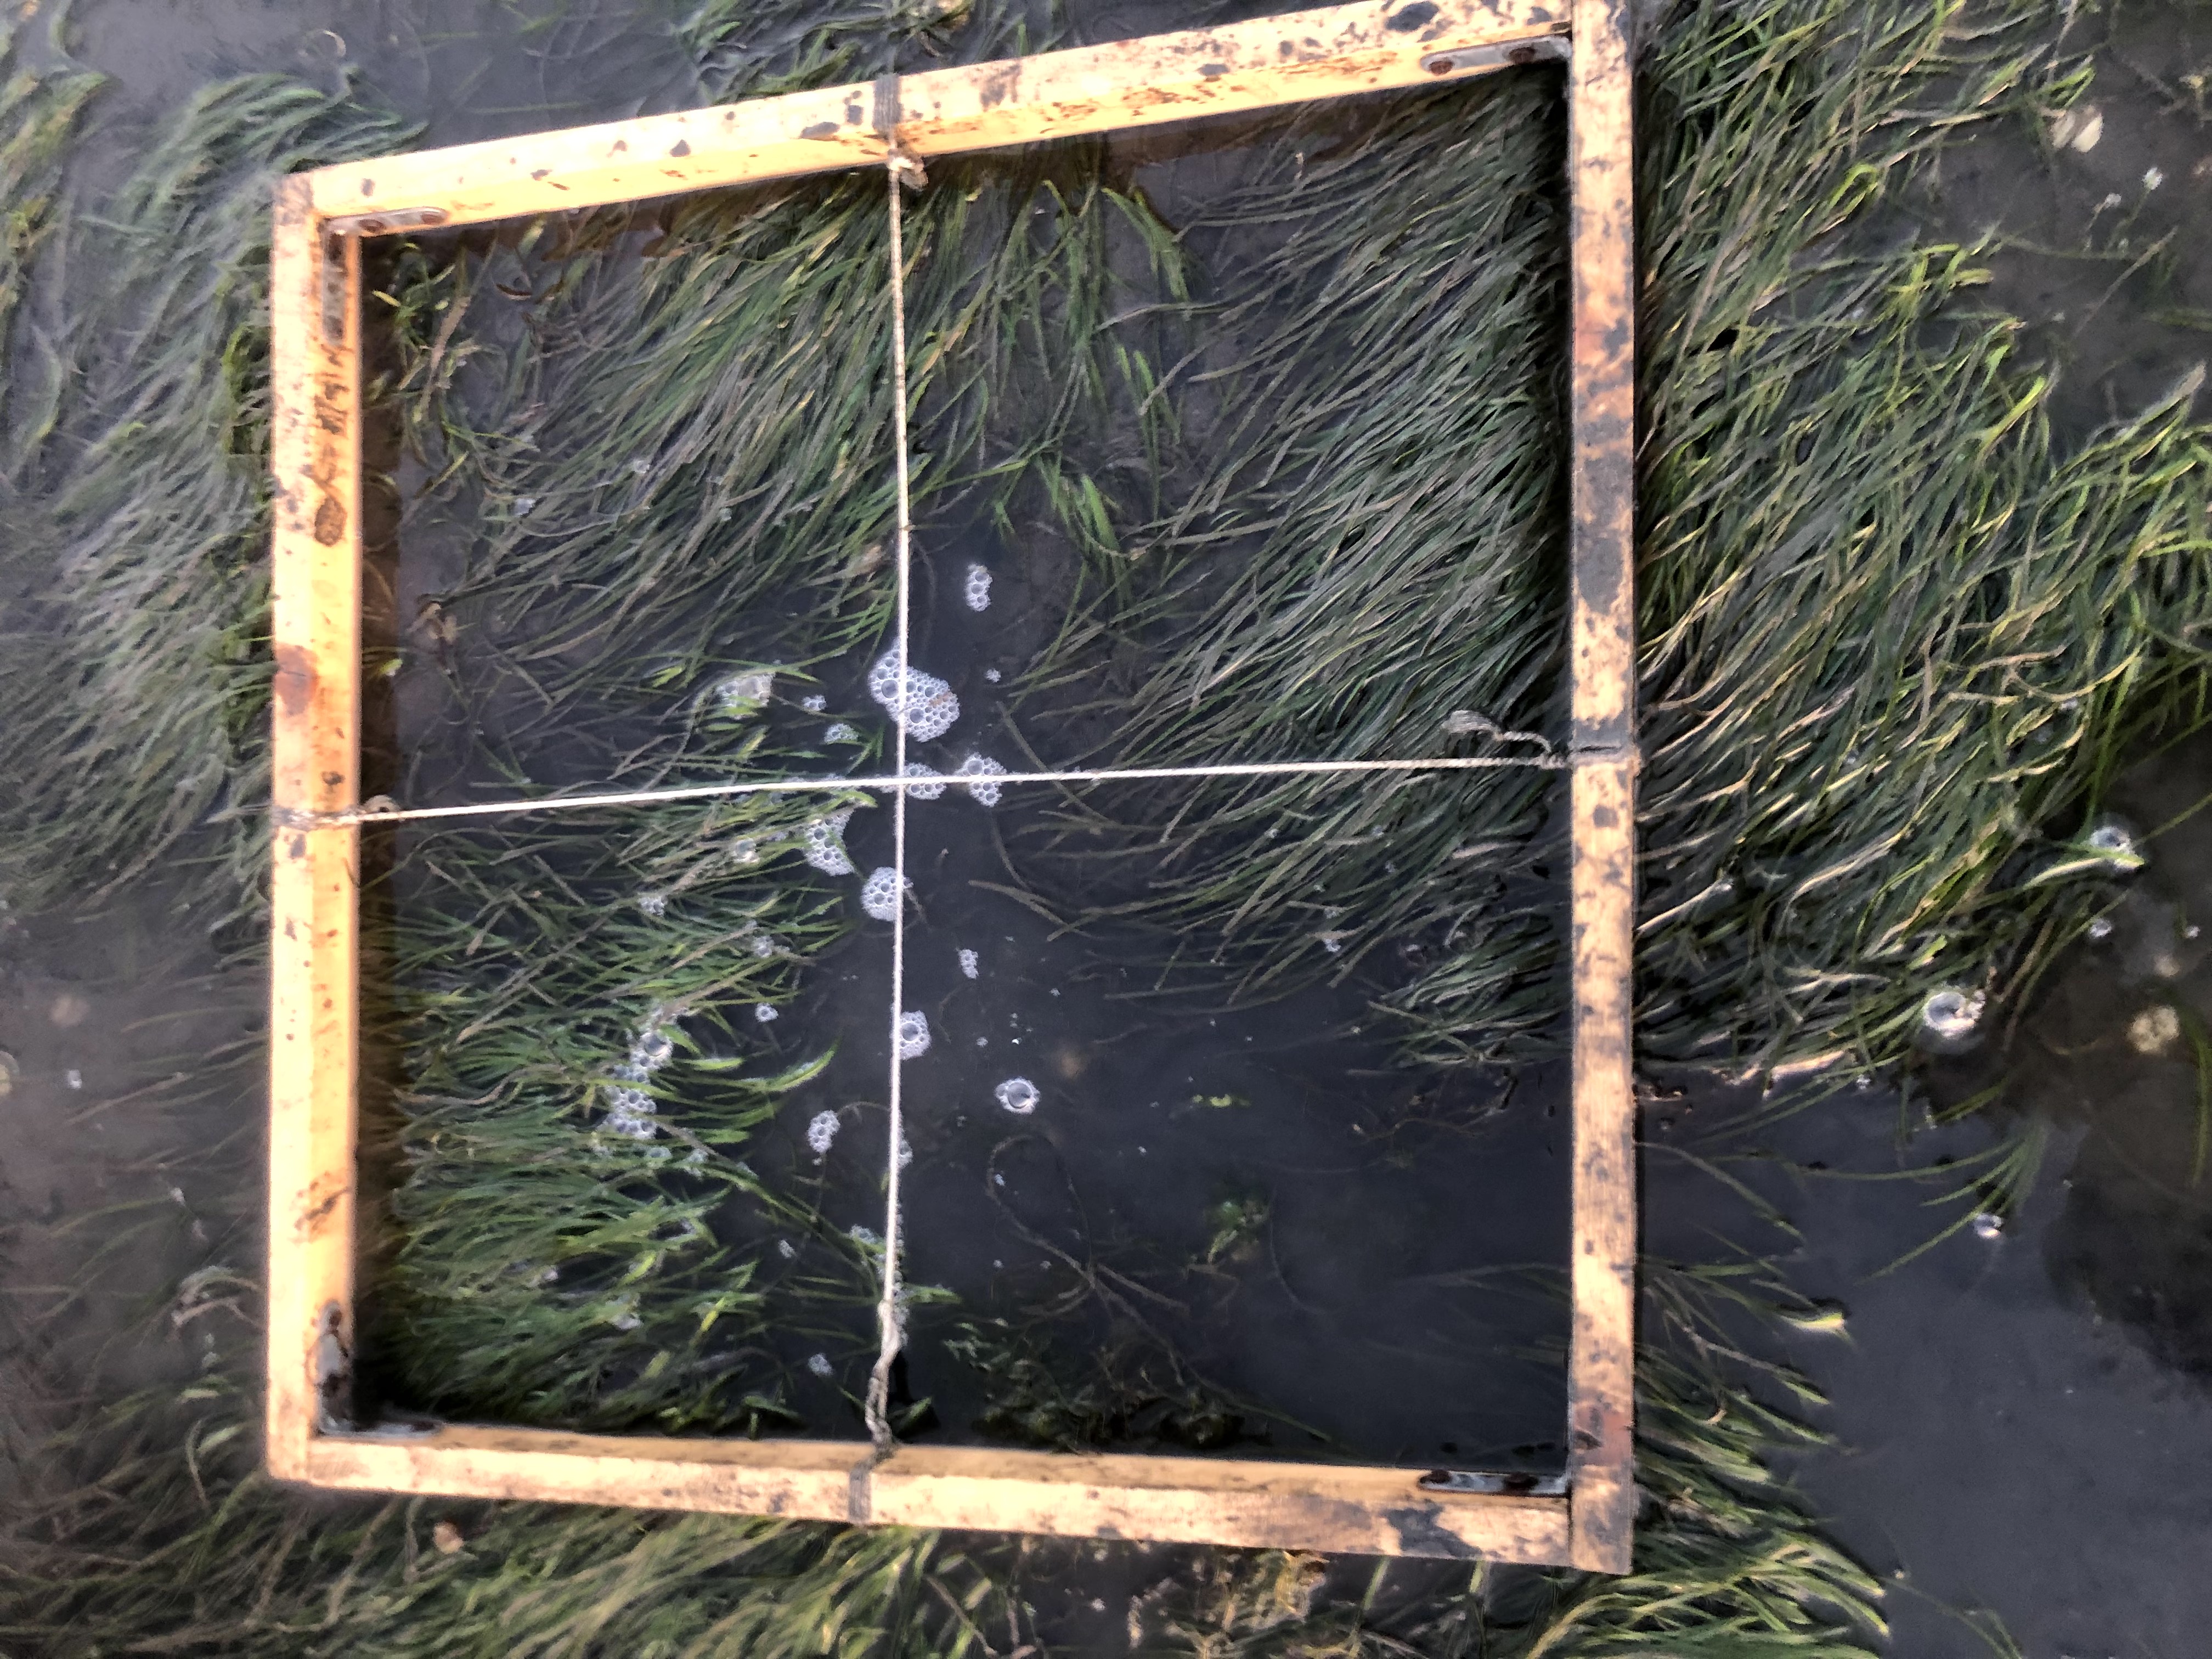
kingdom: Plantae
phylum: Tracheophyta
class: Liliopsida
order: Alismatales
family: Zosteraceae
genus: Zostera
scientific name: Zostera noltii
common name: Dwarf eelgrass
